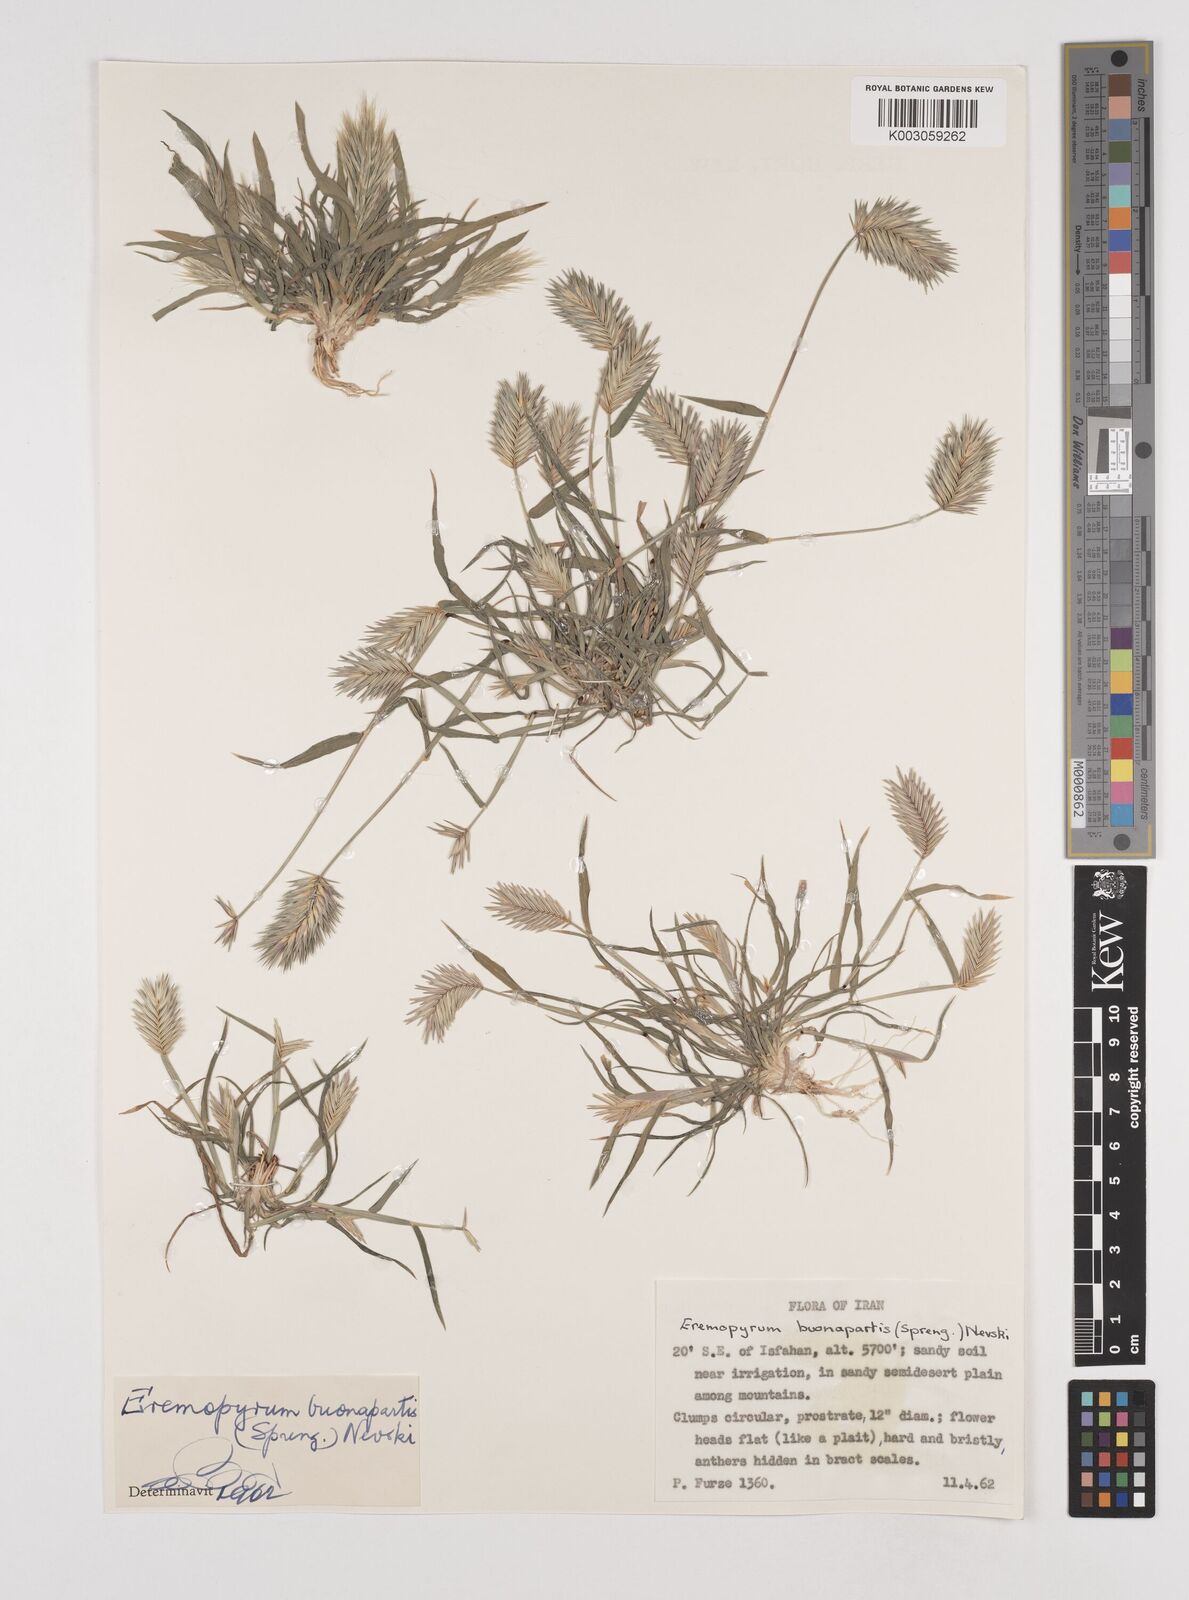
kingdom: Plantae
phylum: Tracheophyta
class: Liliopsida
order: Poales
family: Poaceae
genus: Eremopyrum
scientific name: Eremopyrum bonaepartis
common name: Tapertip false wheatgrass
